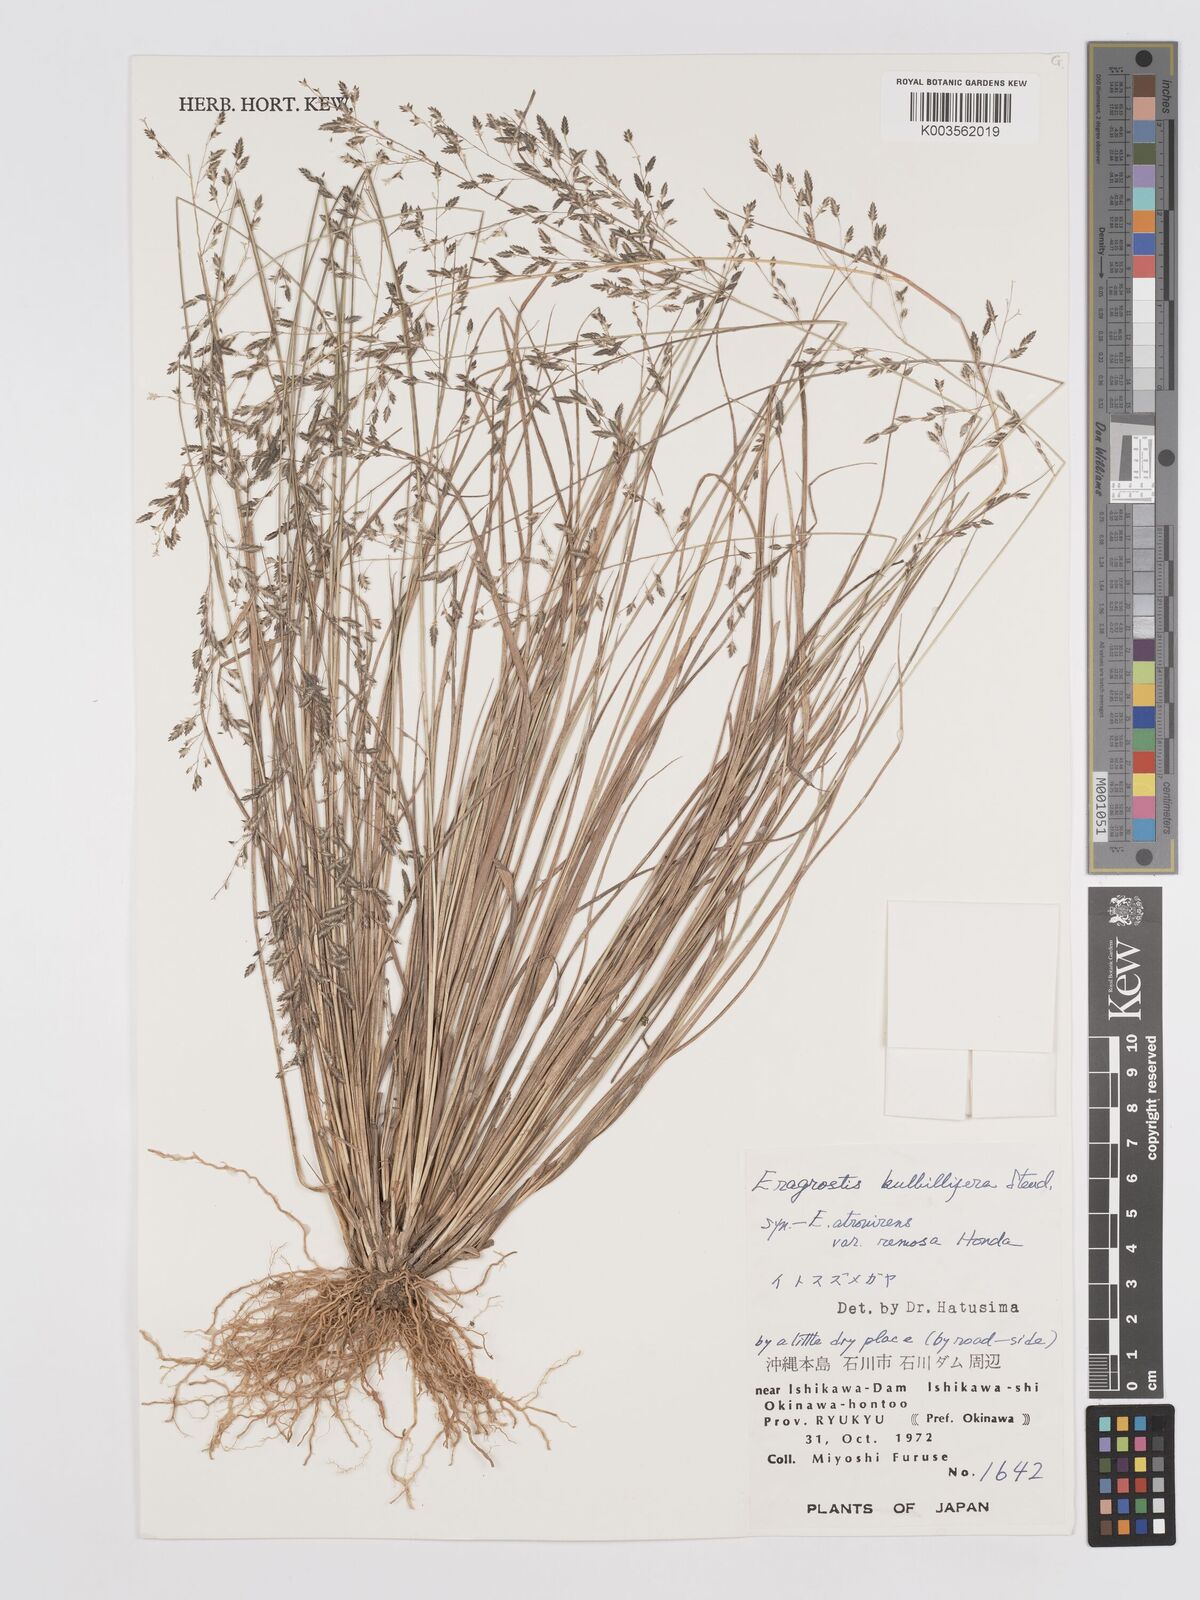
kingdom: Plantae
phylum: Tracheophyta
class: Liliopsida
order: Poales
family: Poaceae
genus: Eragrostis
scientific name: Eragrostis cumingii
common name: Cuming's lovegrass
